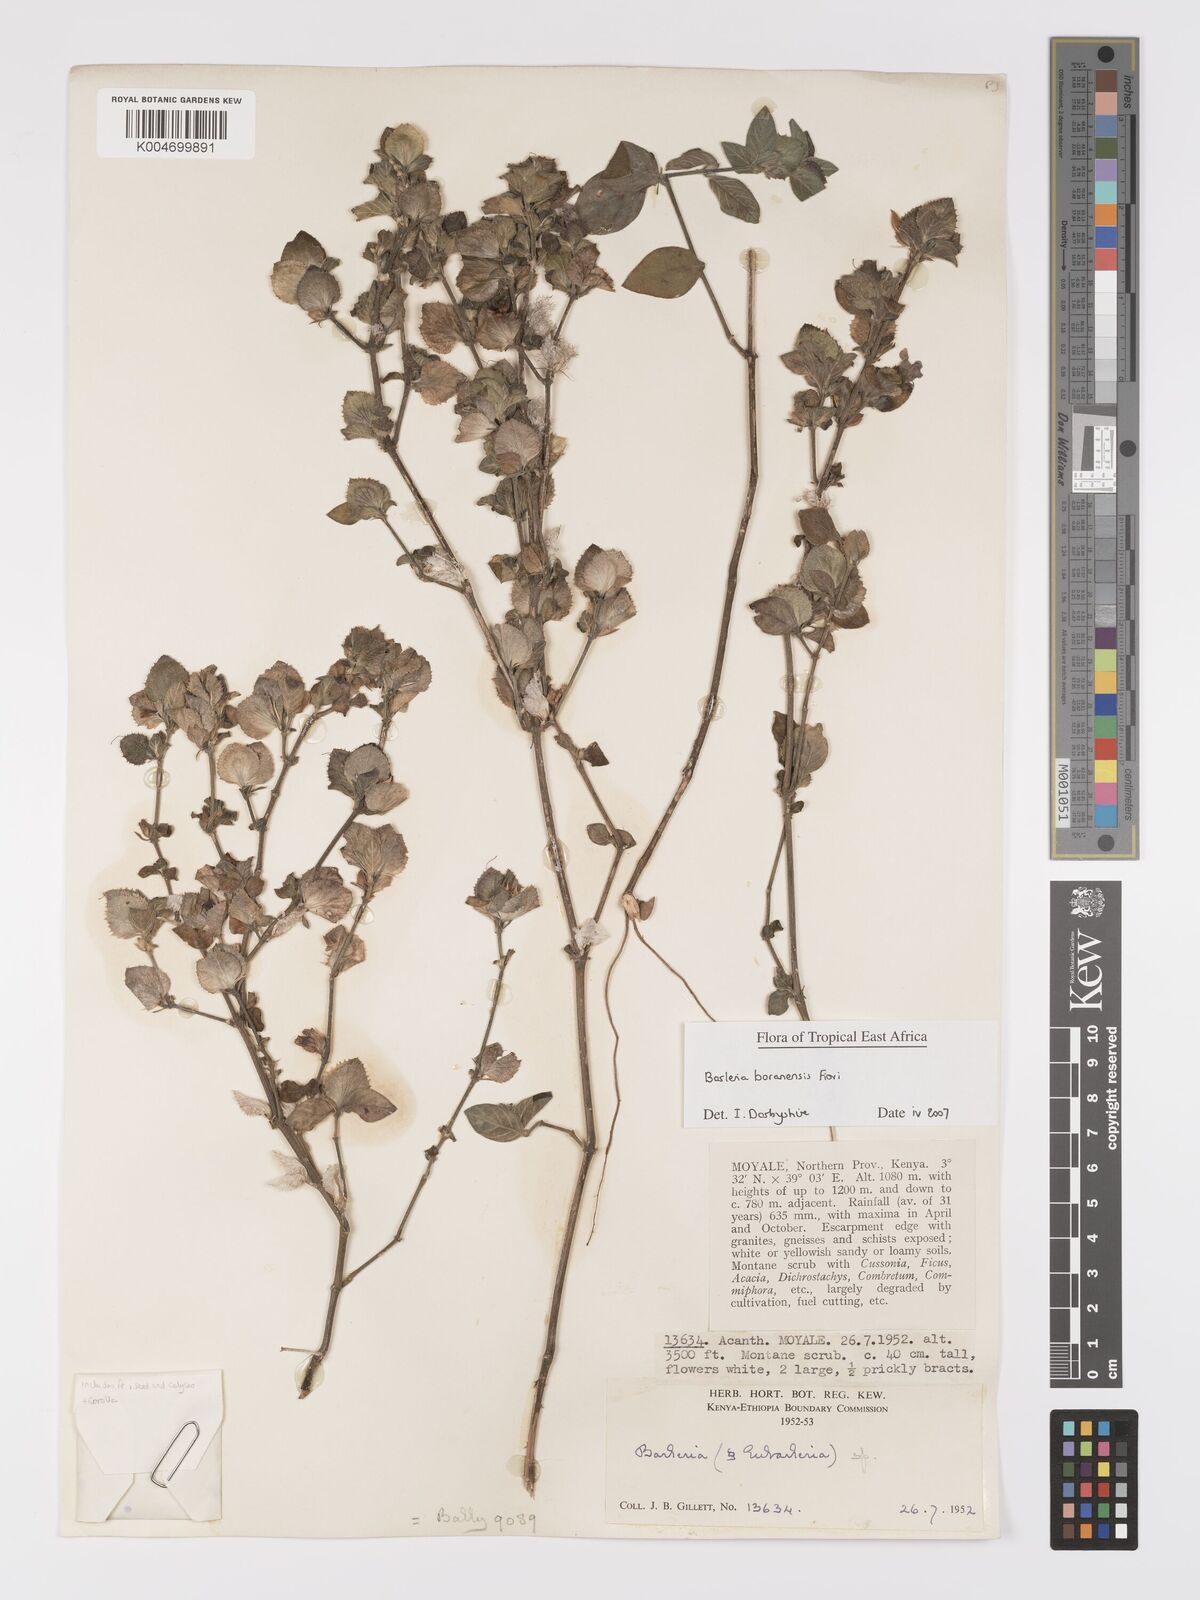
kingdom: Plantae
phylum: Tracheophyta
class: Magnoliopsida
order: Lamiales
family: Acanthaceae
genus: Barleria
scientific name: Barleria boranensis
